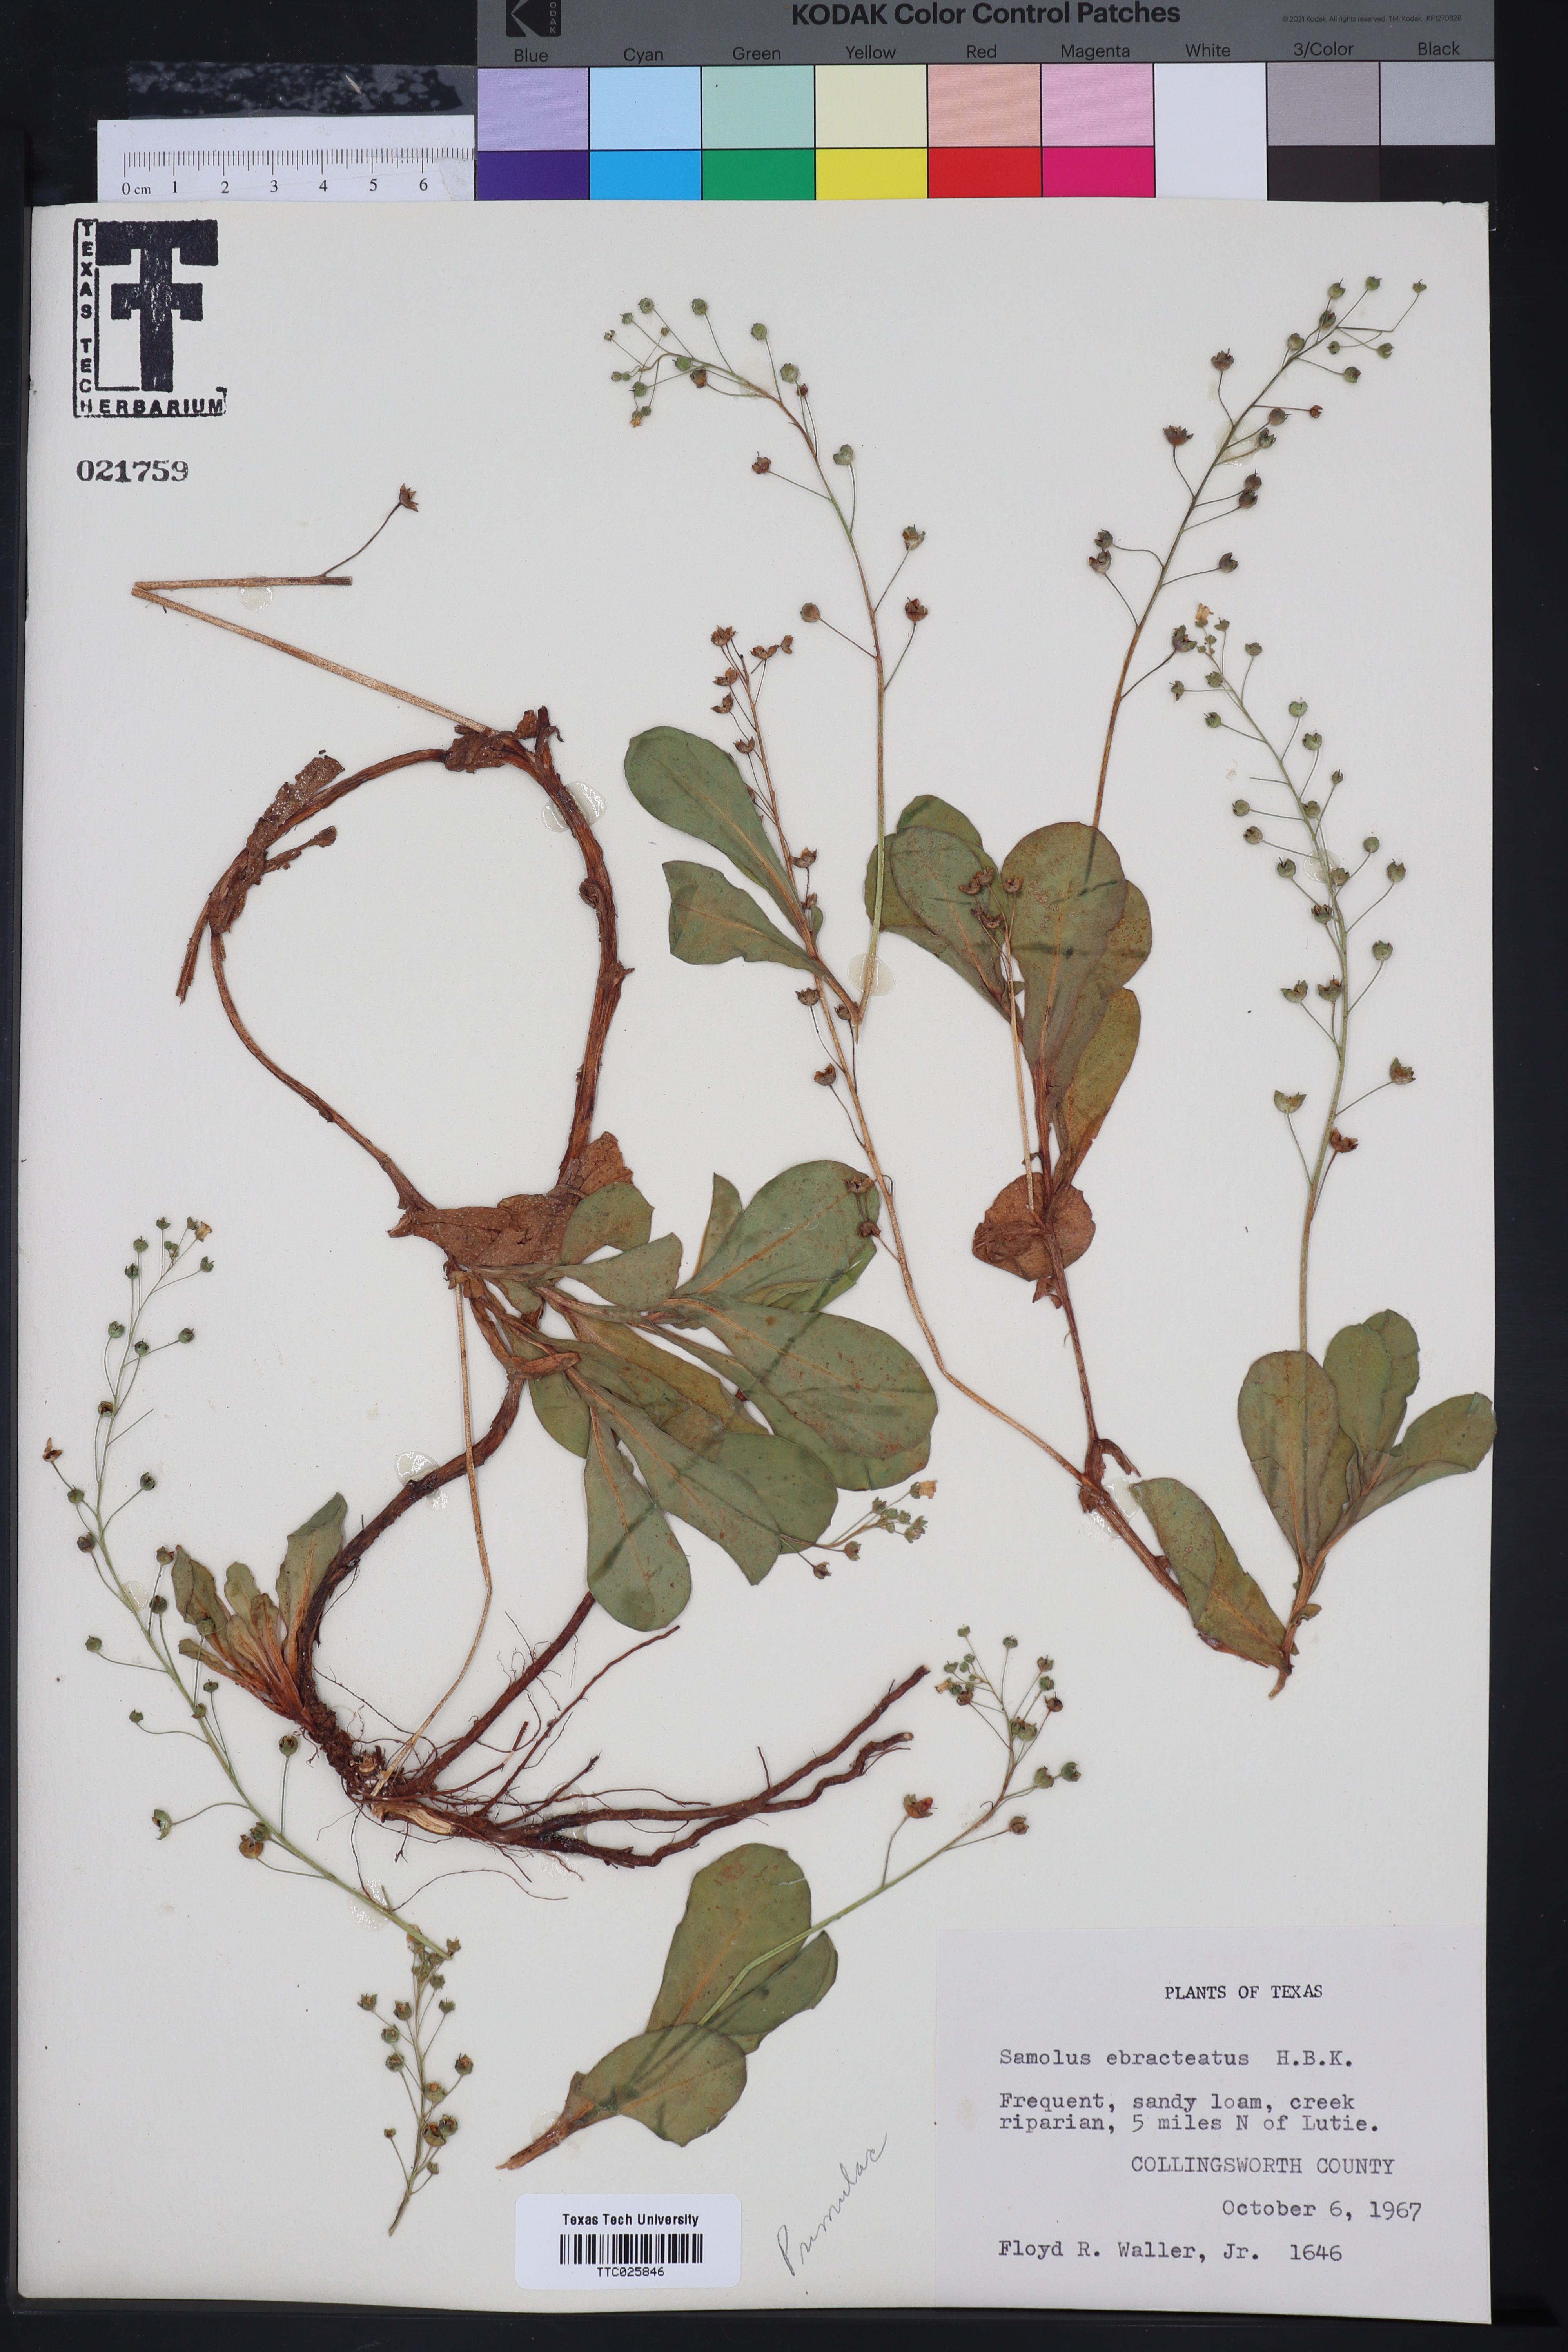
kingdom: Plantae
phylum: Tracheophyta
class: Magnoliopsida
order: Ericales
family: Primulaceae
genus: Samolus
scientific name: Samolus ebracteatus
